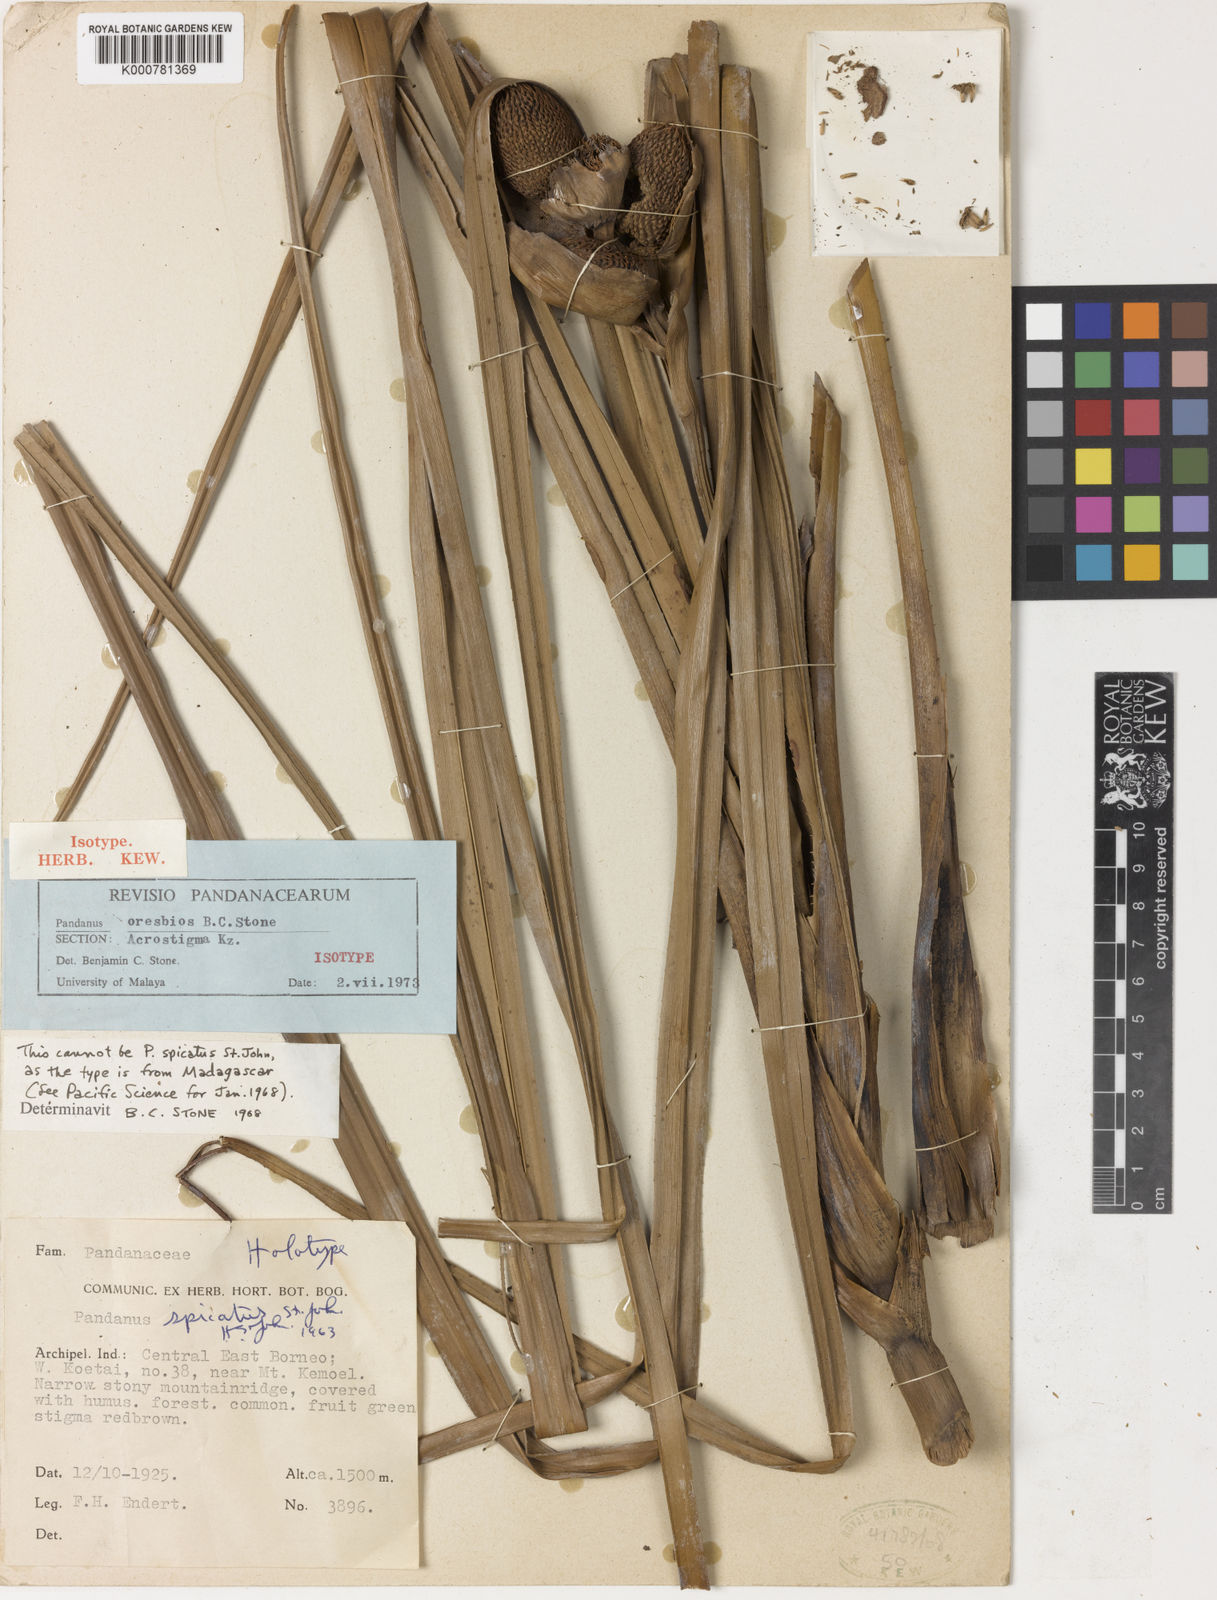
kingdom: Plantae
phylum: Tracheophyta
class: Liliopsida
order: Pandanales
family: Pandanaceae
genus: Benstonea
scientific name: Benstonea rupestris
